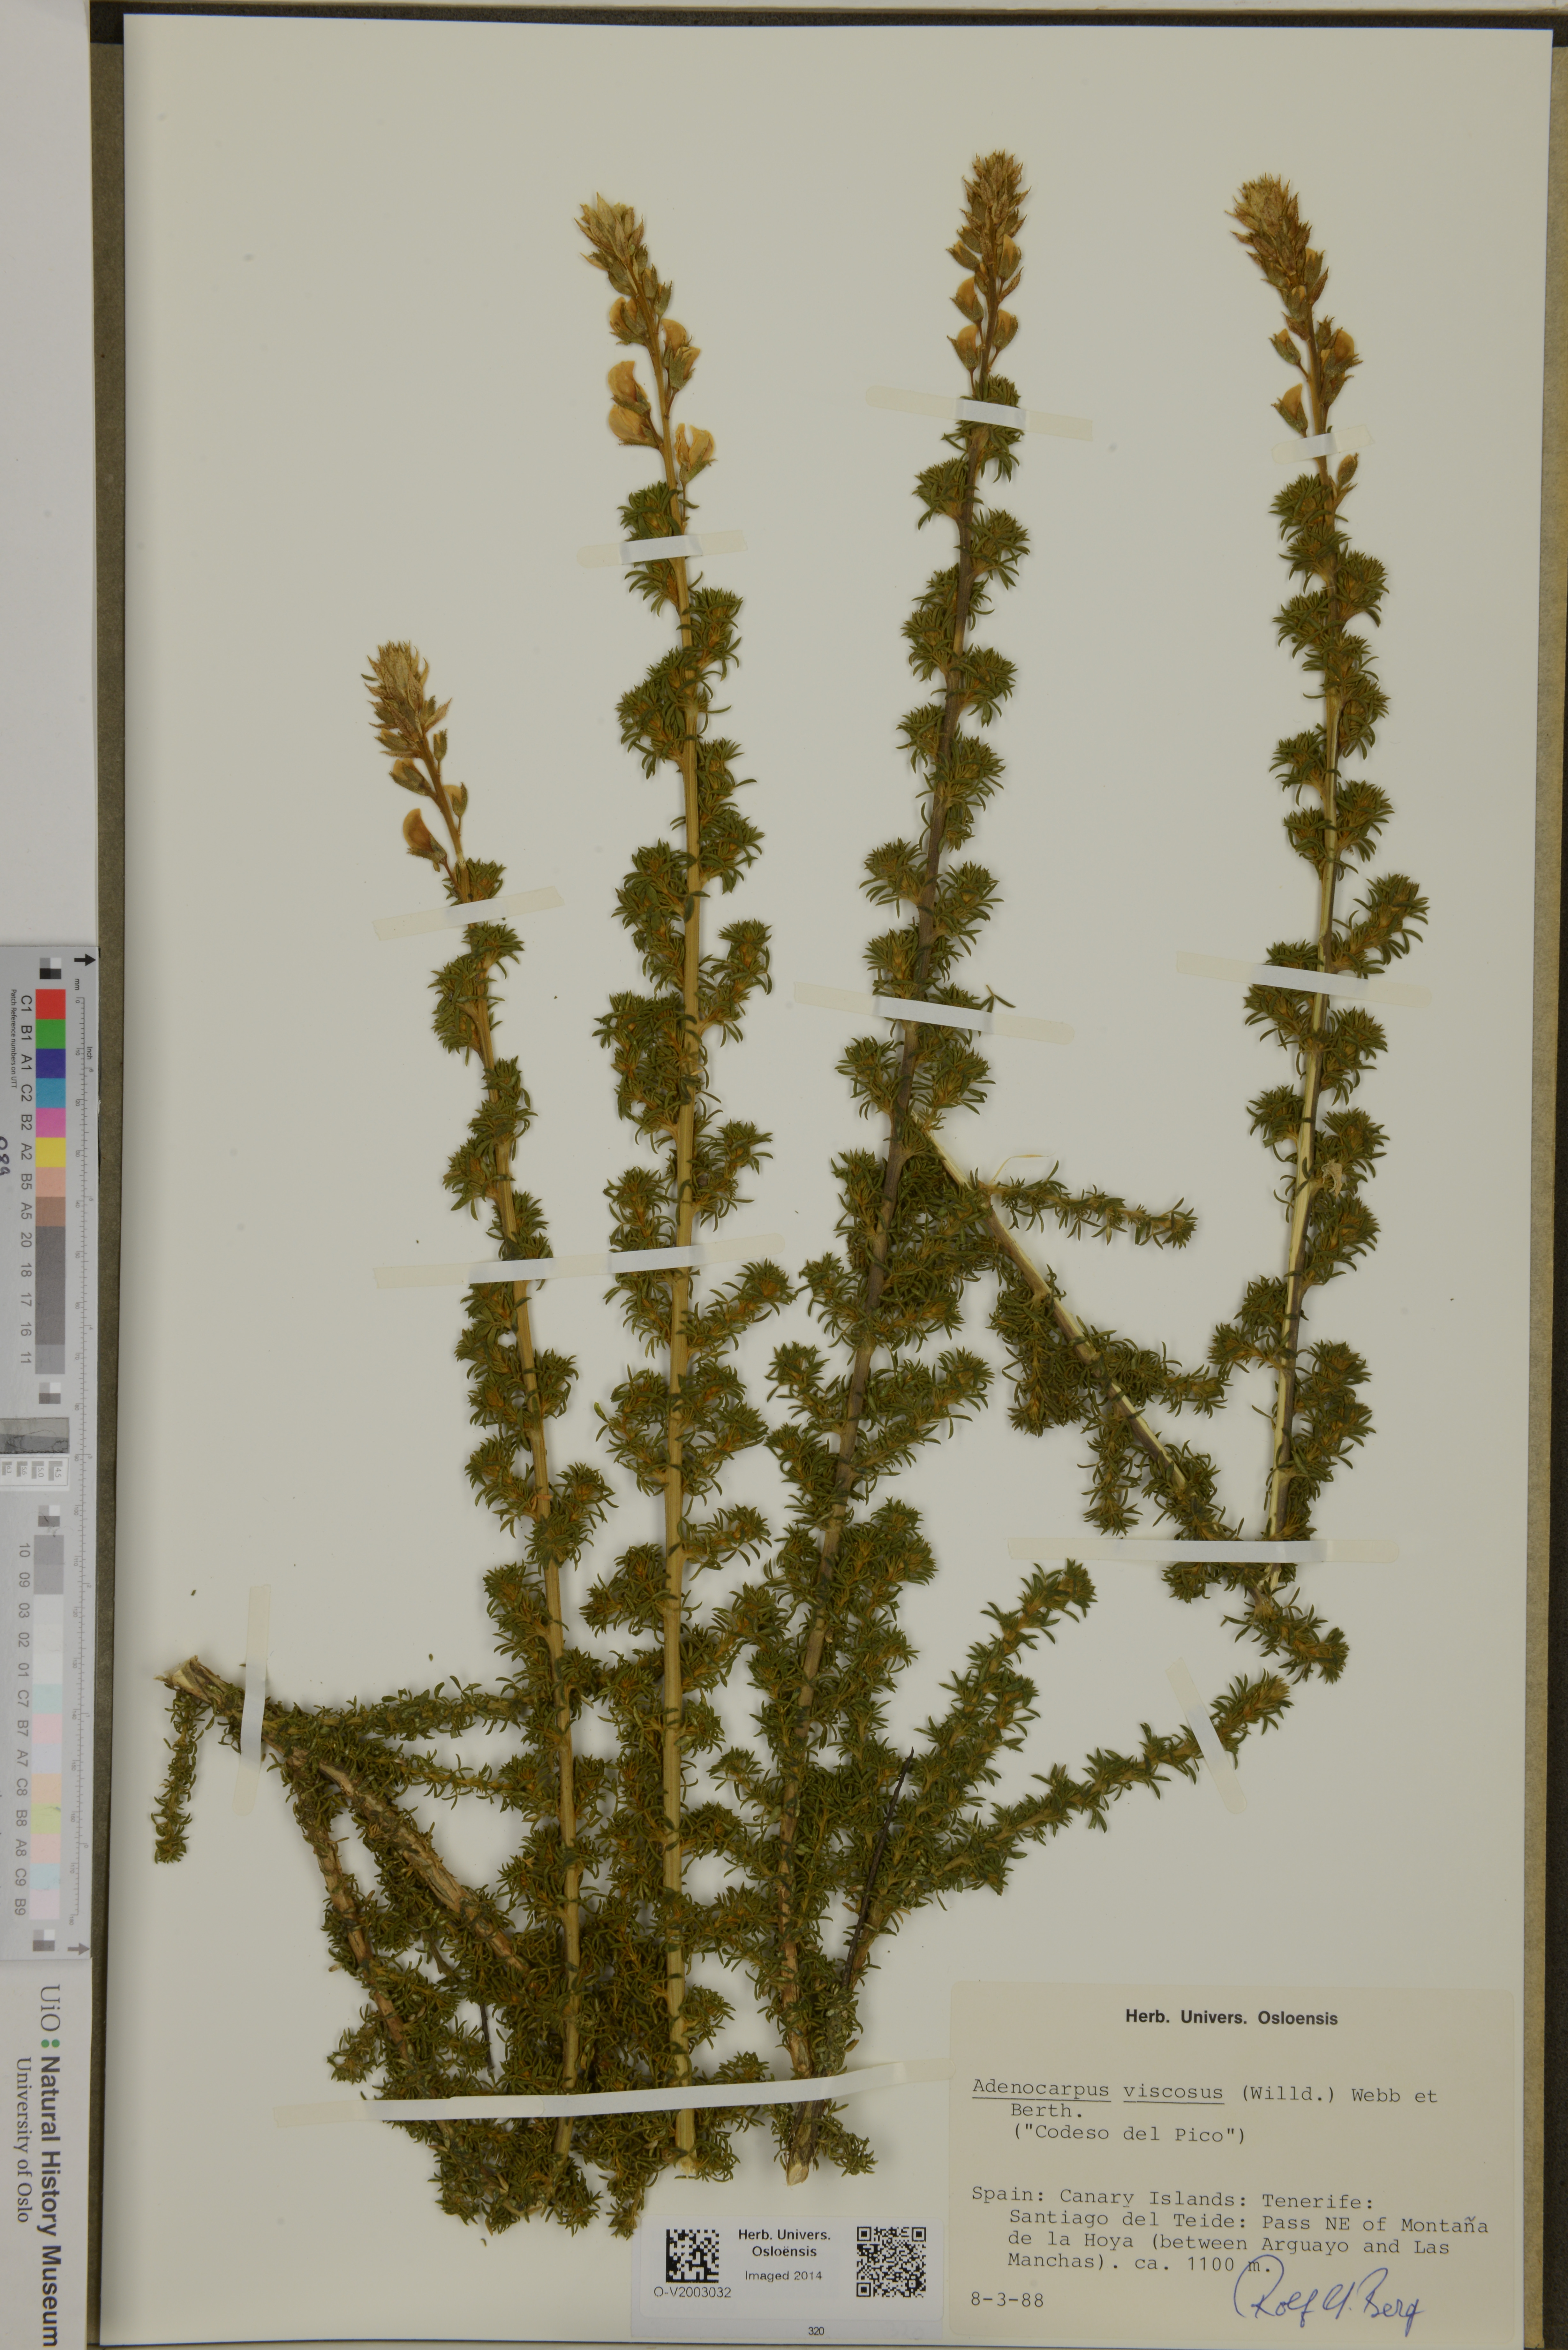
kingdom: Plantae
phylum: Tracheophyta
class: Magnoliopsida
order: Fabales
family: Fabaceae
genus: Adenocarpus
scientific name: Adenocarpus viscosus
